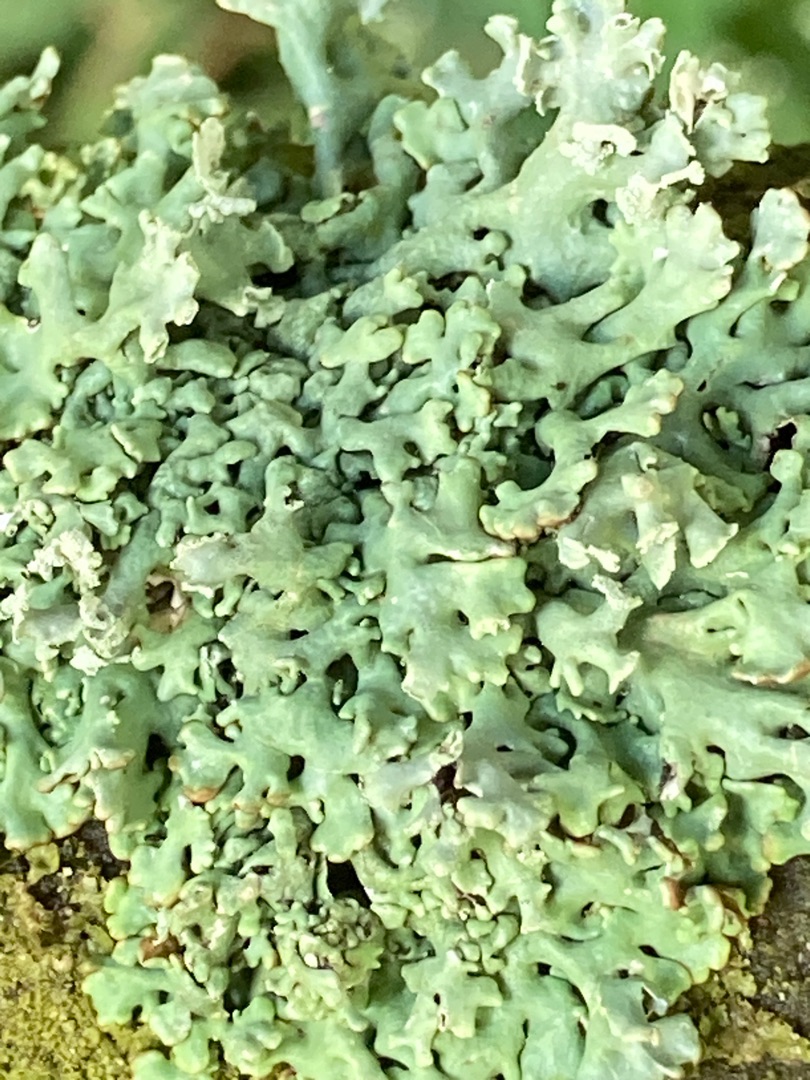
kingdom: Fungi
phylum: Ascomycota
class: Lecanoromycetes
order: Lecanorales
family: Parmeliaceae
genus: Hypogymnia
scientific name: Hypogymnia physodes
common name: Almindelig kvistlav
